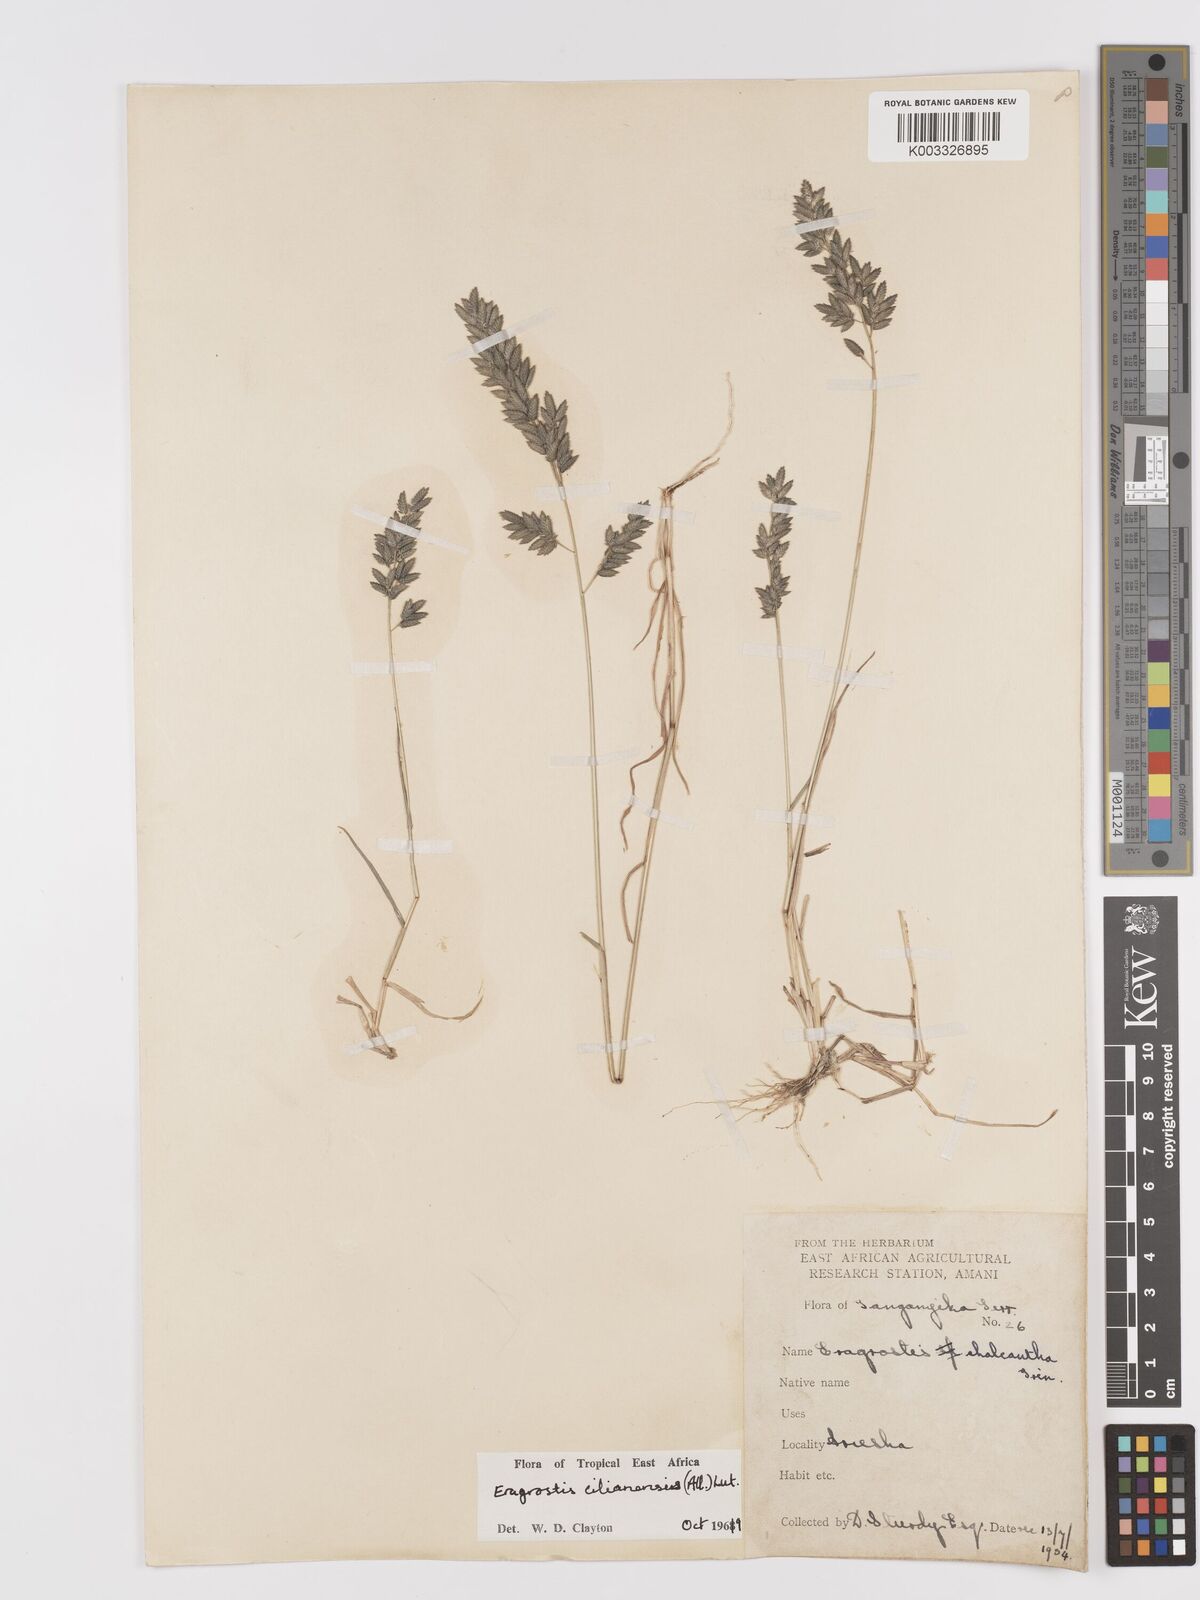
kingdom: Plantae
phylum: Tracheophyta
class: Liliopsida
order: Poales
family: Poaceae
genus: Eragrostis
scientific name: Eragrostis cilianensis
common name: Stinkgrass
